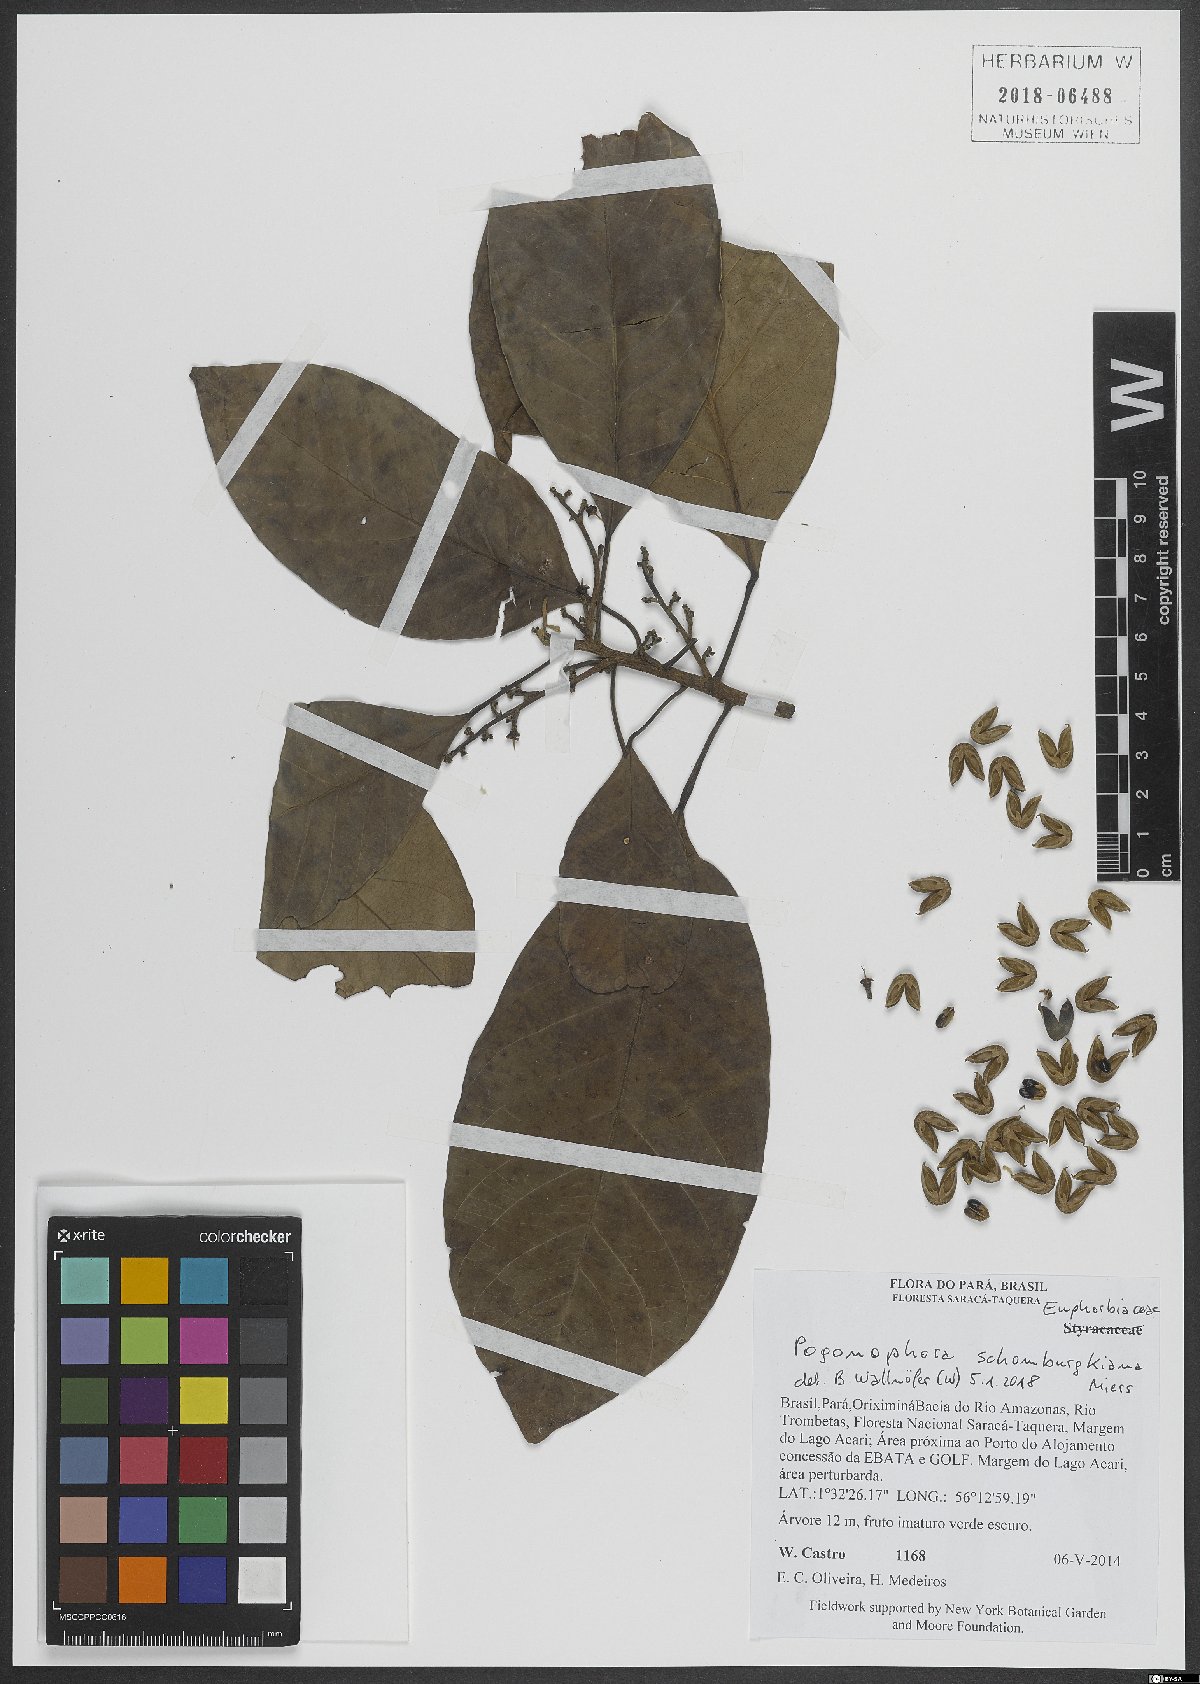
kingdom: Plantae
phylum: Tracheophyta
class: Magnoliopsida
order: Malpighiales
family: Peraceae
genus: Pogonophora
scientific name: Pogonophora schomburgkiana
